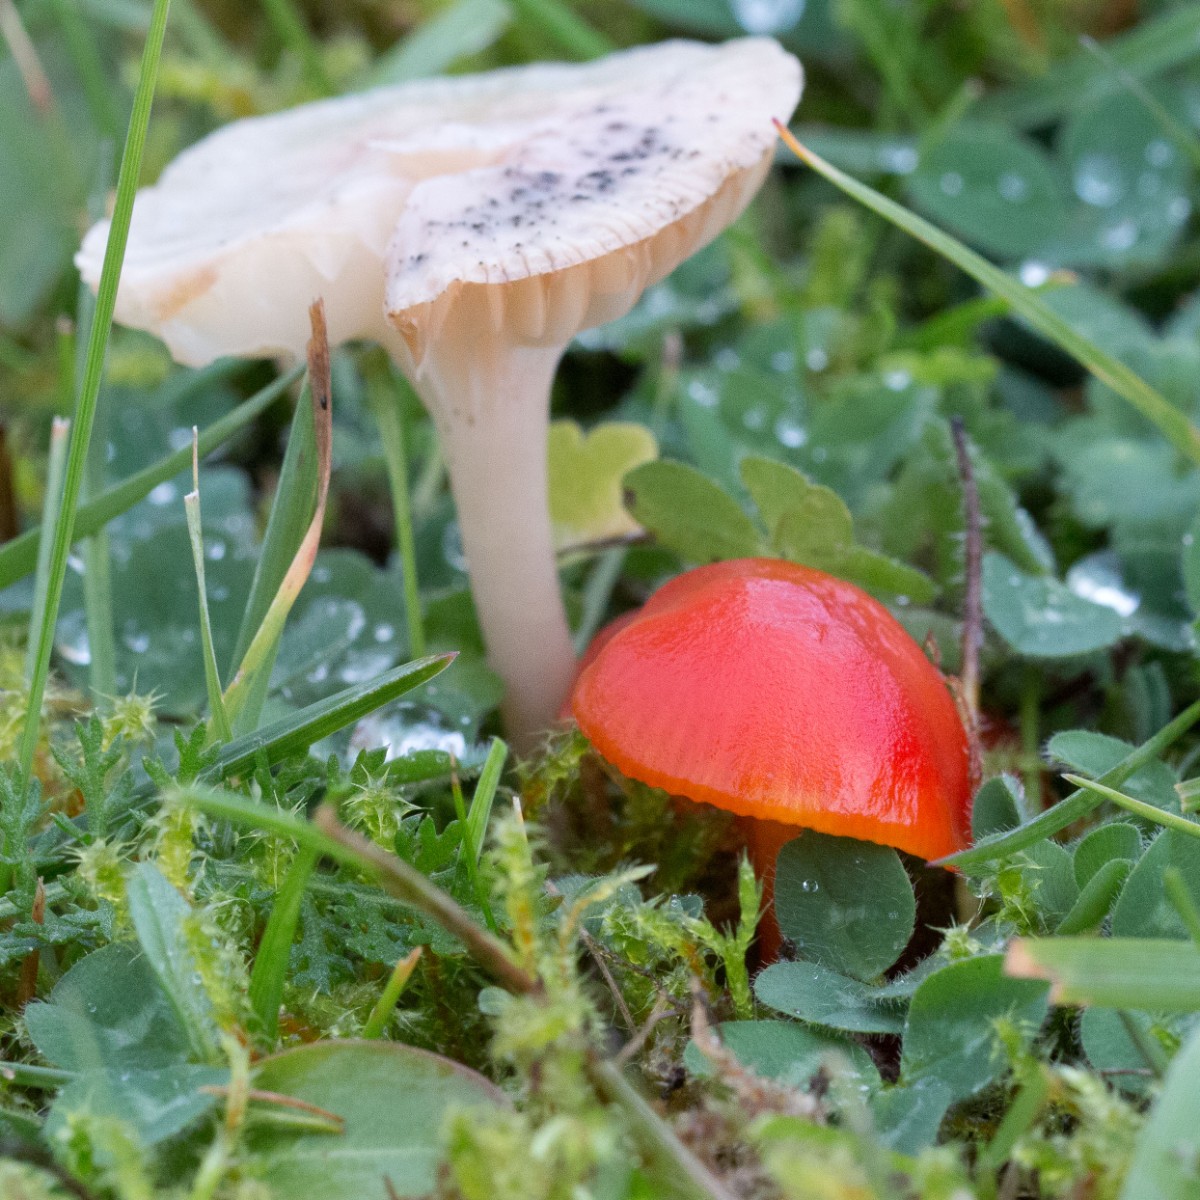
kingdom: Fungi
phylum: Basidiomycota
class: Agaricomycetes
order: Agaricales
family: Hygrophoraceae
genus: Hygrocybe
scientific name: Hygrocybe insipida
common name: liden vokshat
